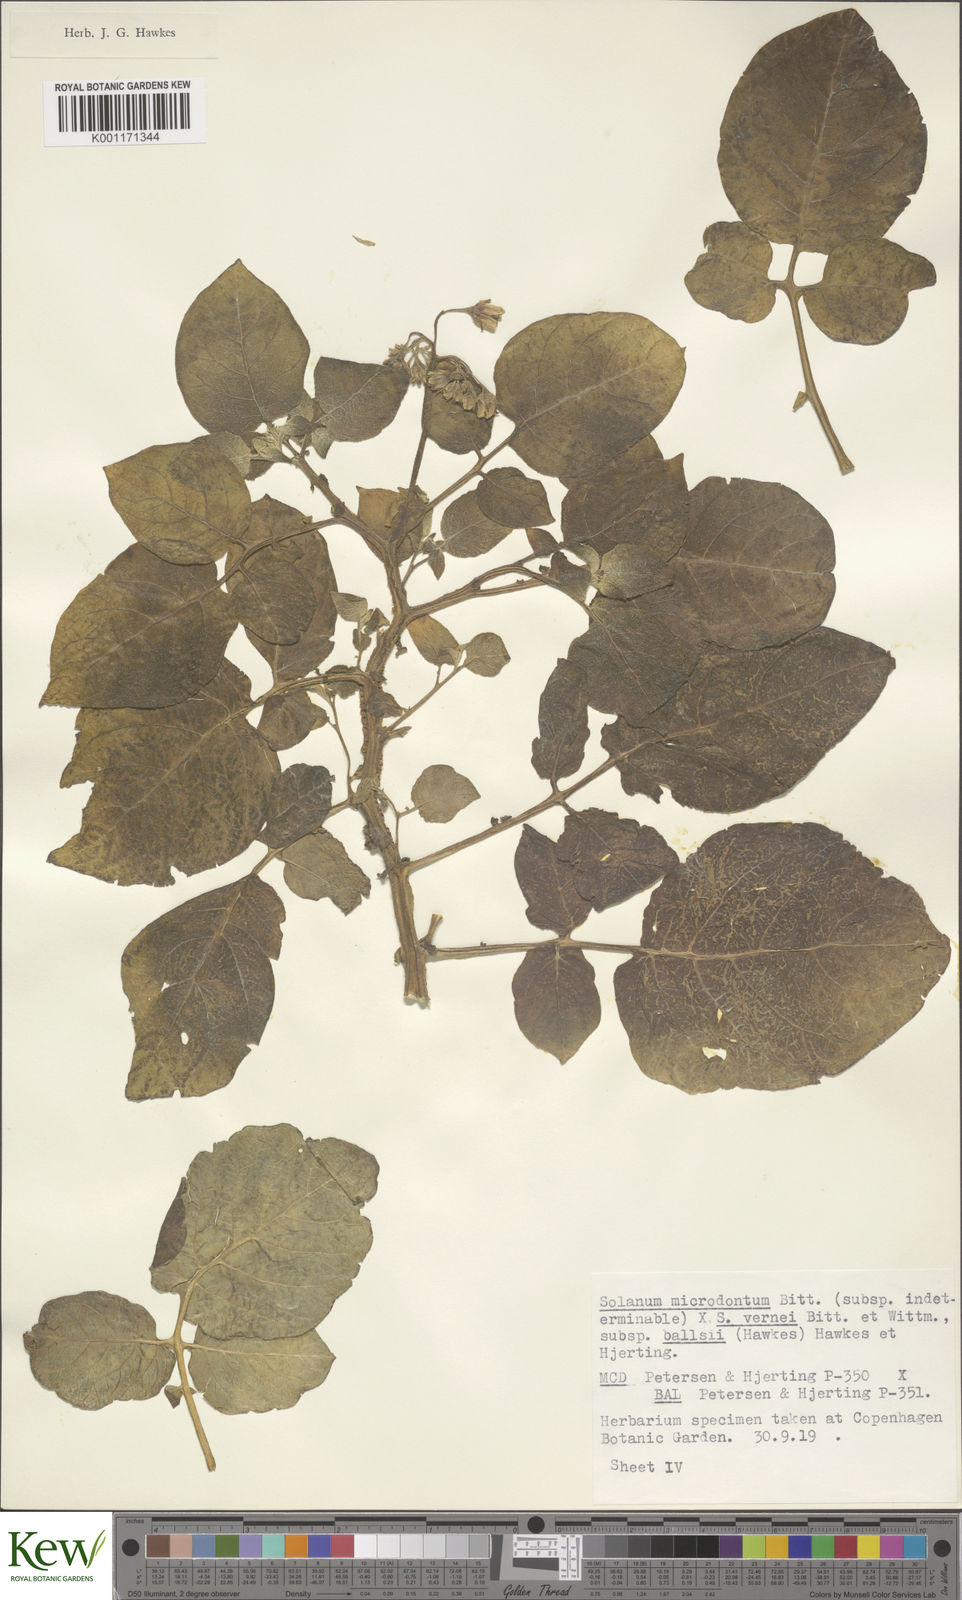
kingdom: Plantae
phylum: Tracheophyta
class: Magnoliopsida
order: Solanales
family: Solanaceae
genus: Solanum
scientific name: Solanum vernei
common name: Purple potato
